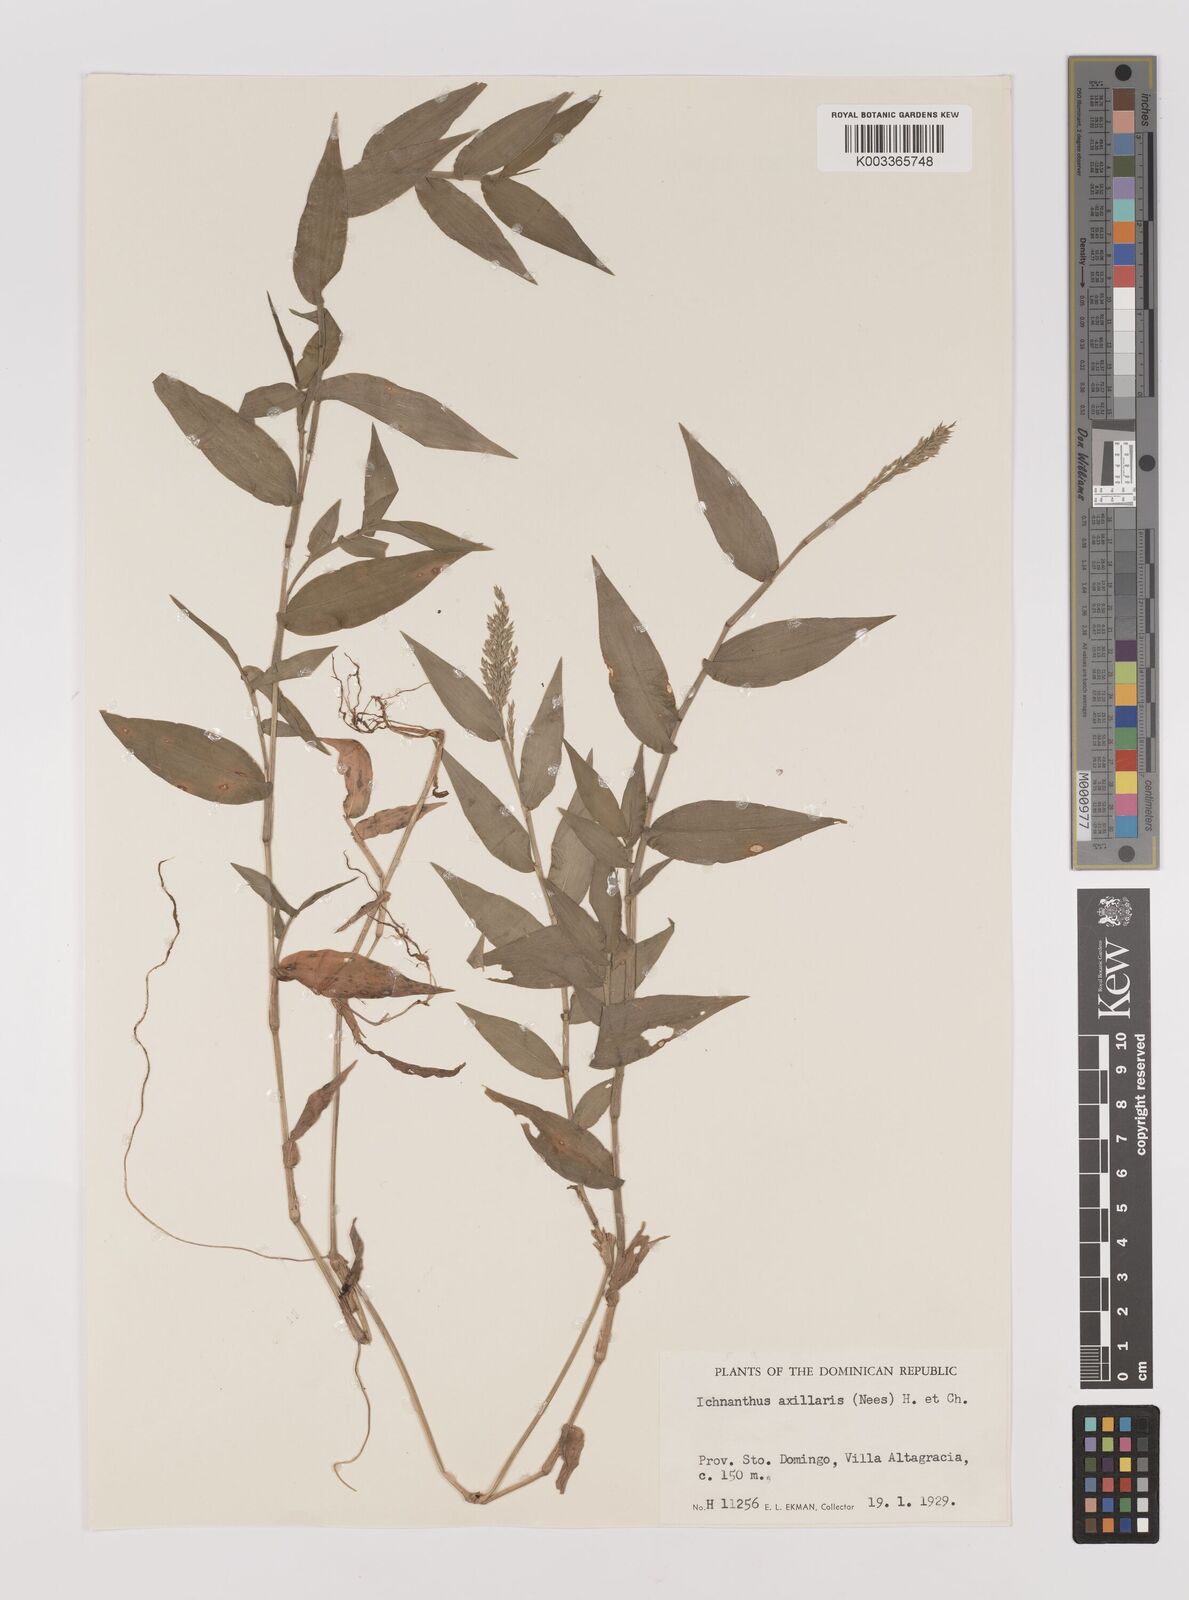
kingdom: Plantae
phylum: Tracheophyta
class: Liliopsida
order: Poales
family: Poaceae
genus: Ichnanthus
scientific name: Ichnanthus pallens
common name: Water grass
